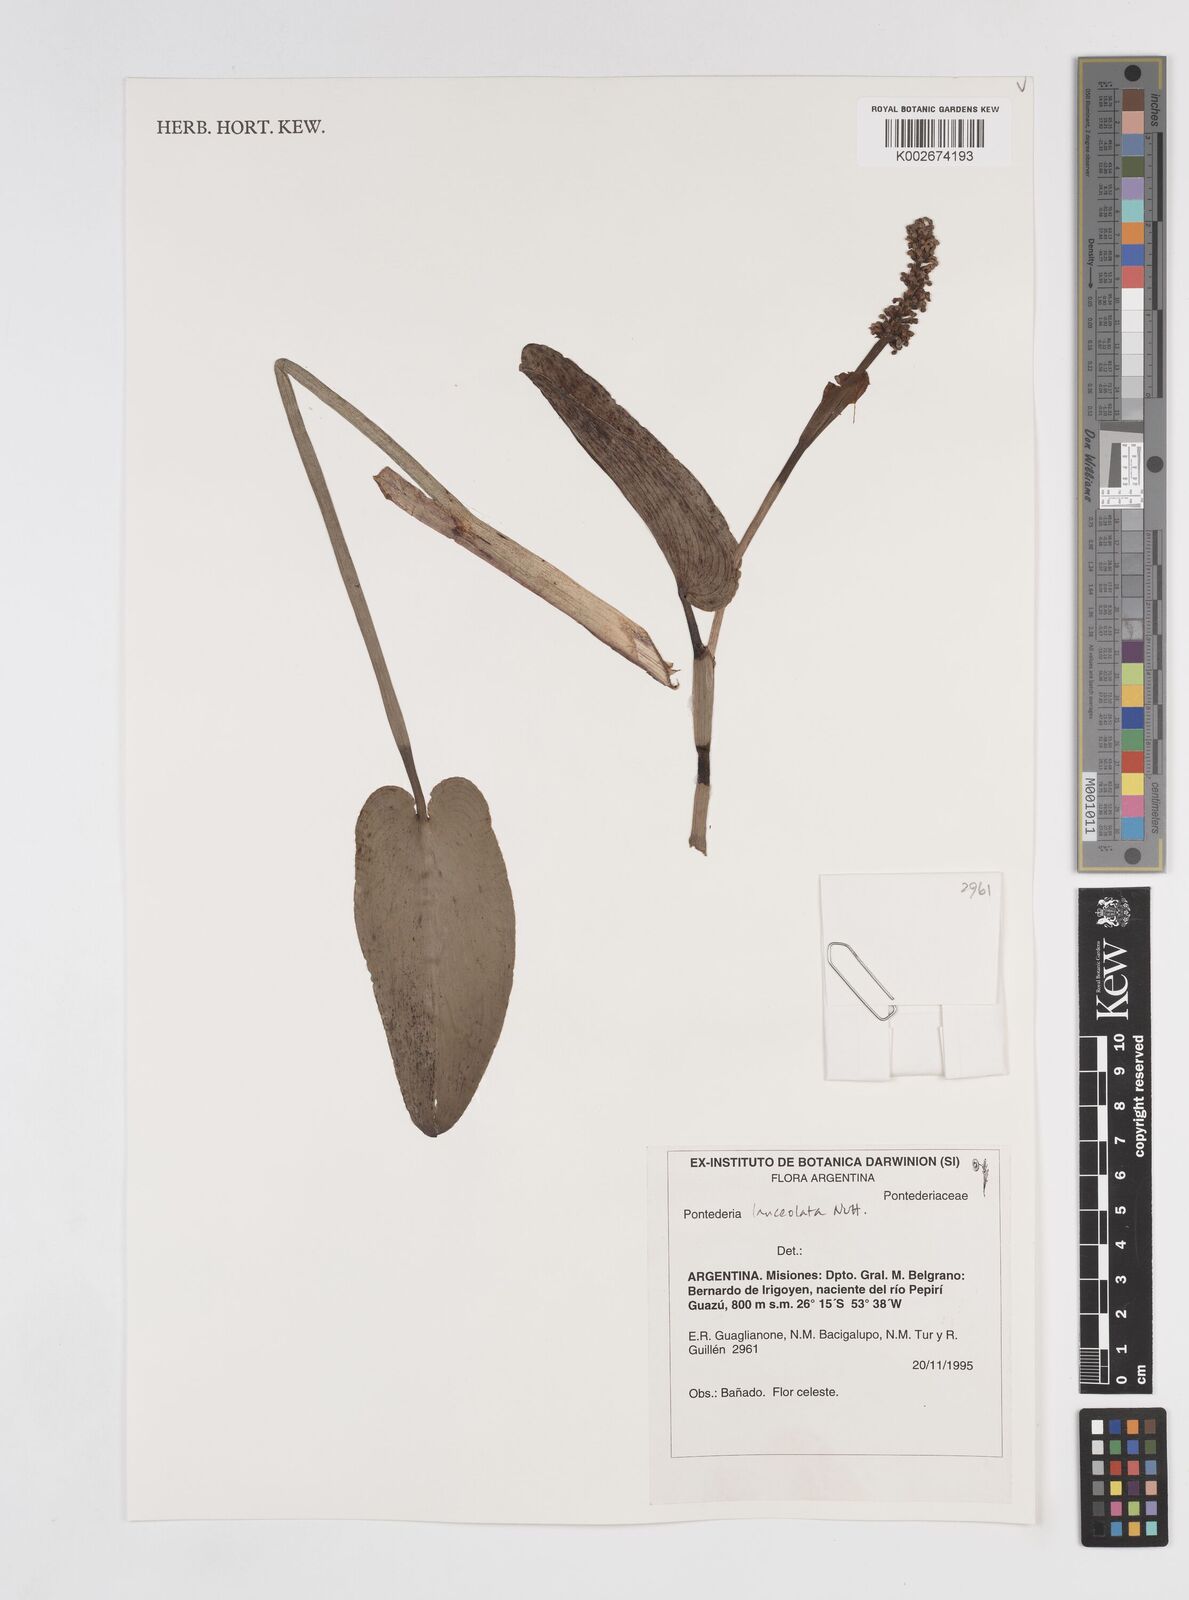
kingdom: Plantae
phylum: Tracheophyta
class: Liliopsida
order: Commelinales
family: Pontederiaceae
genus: Pontederia
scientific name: Pontederia
